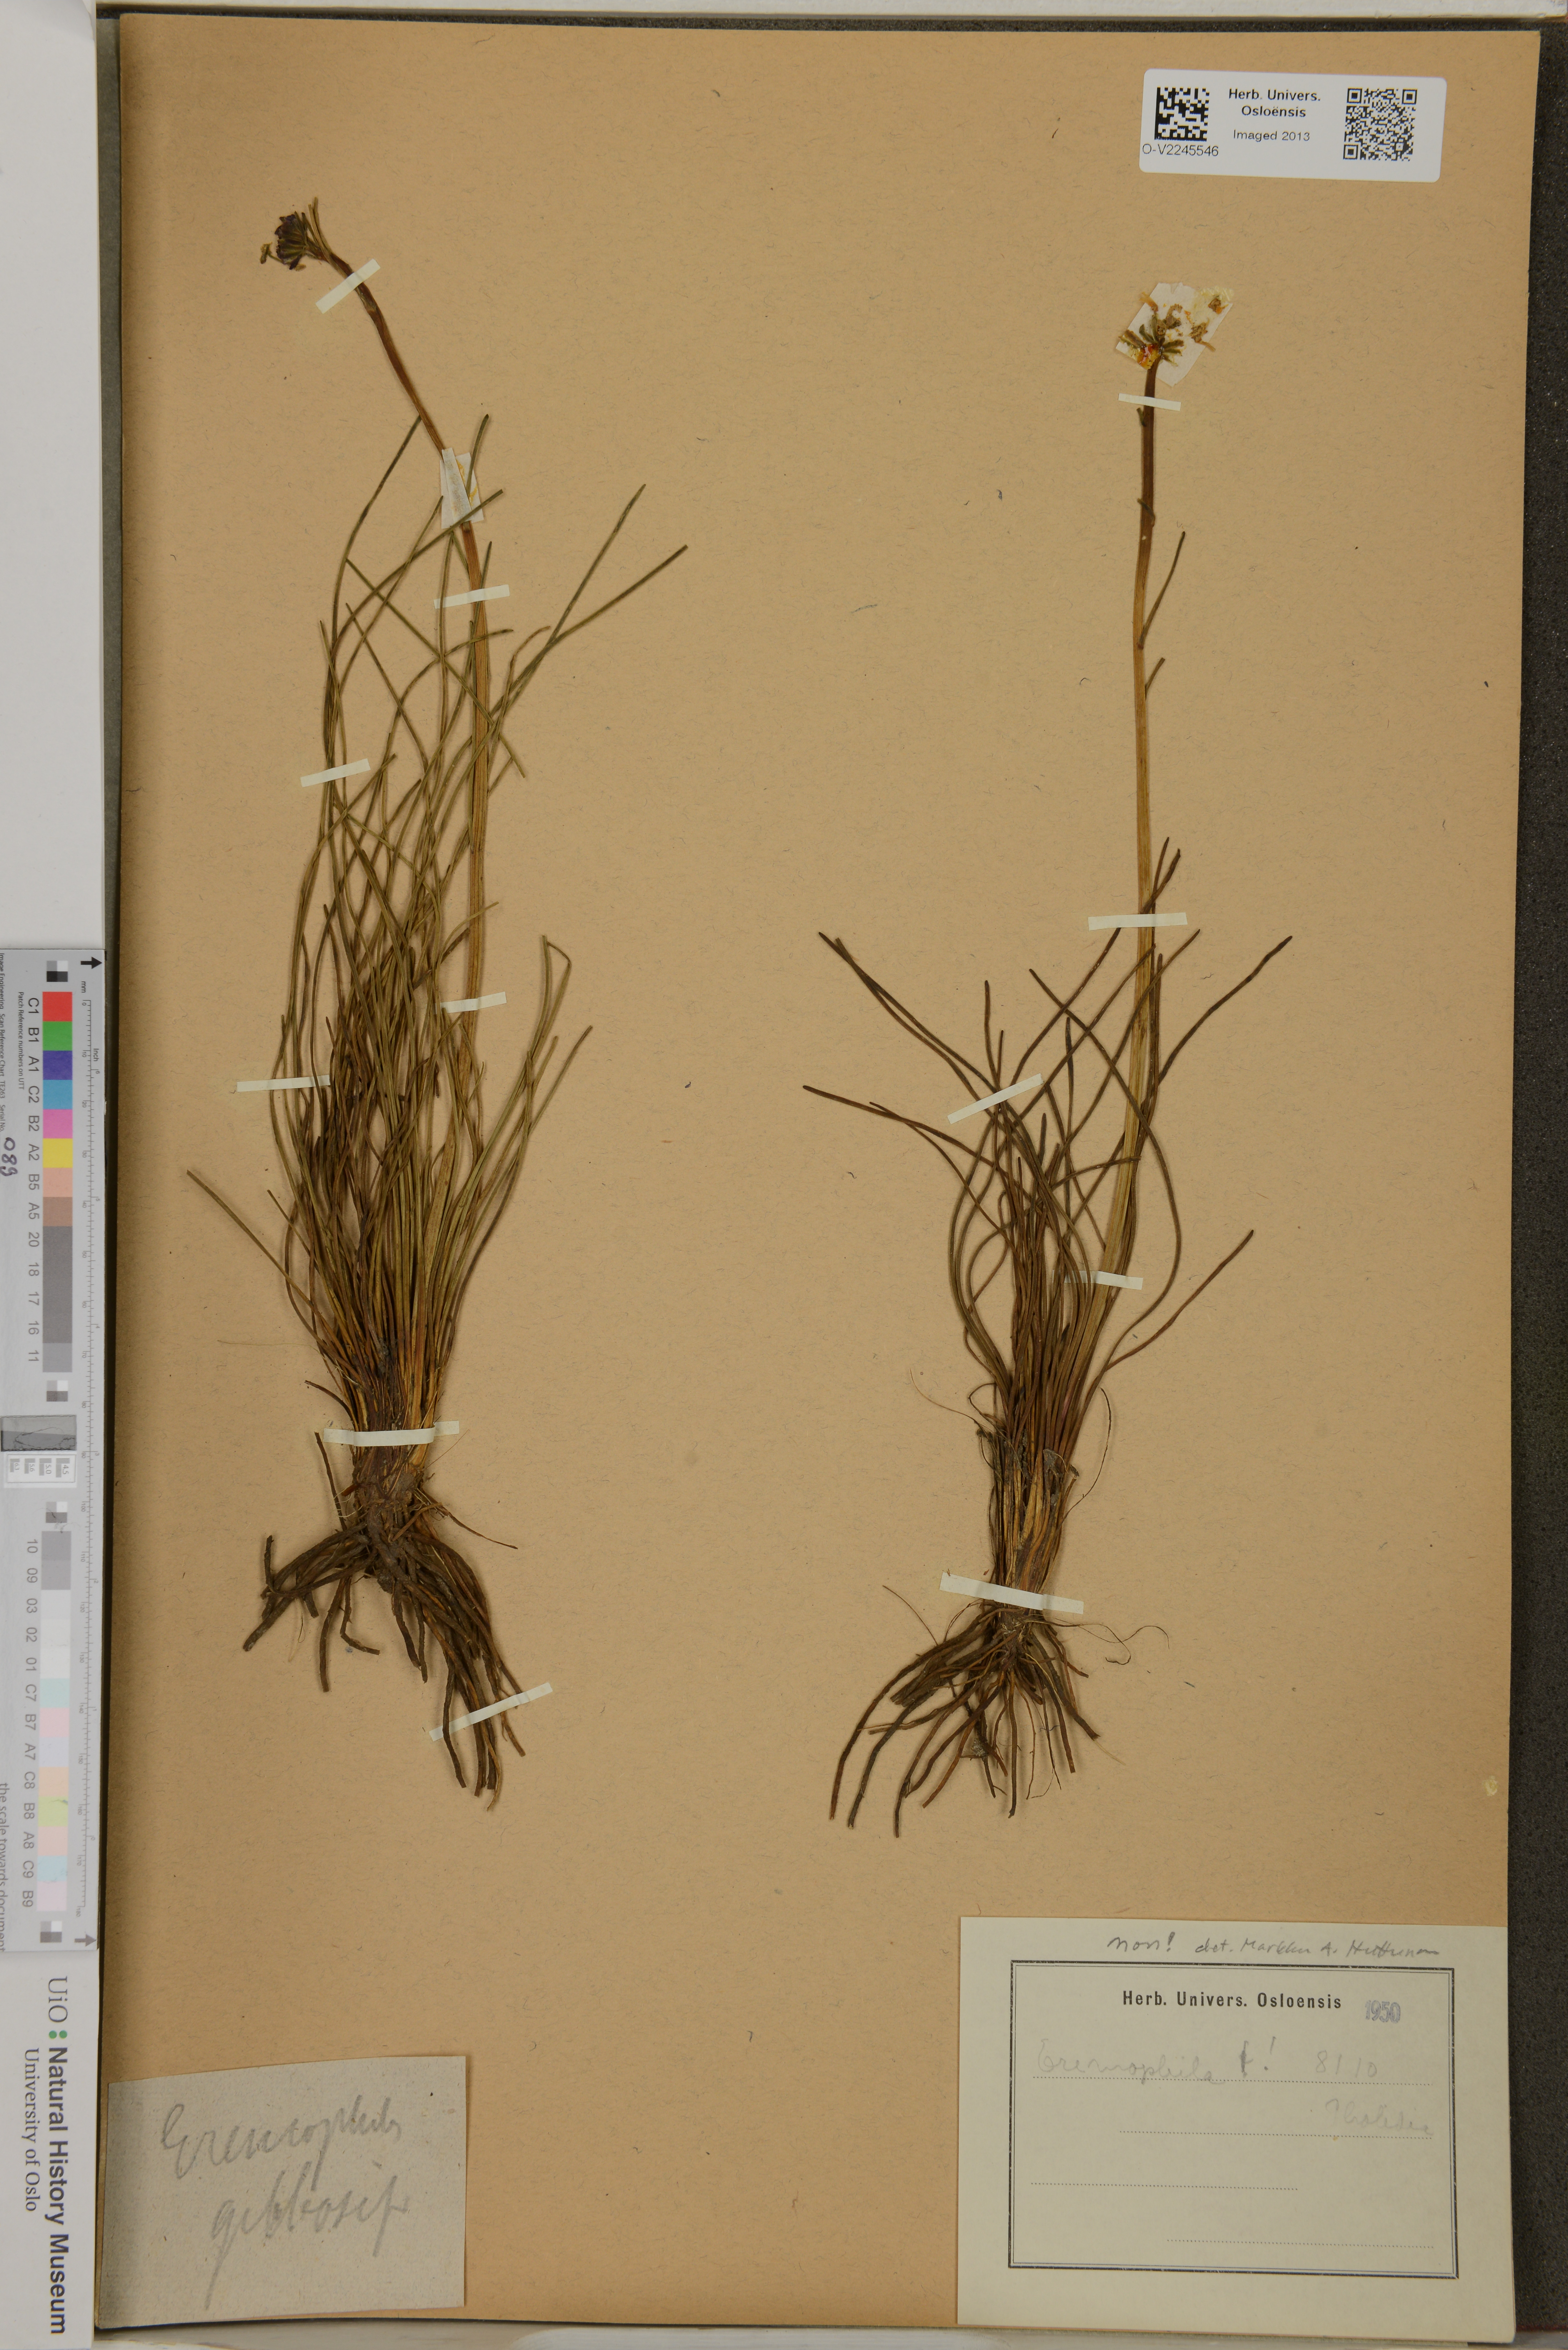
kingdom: Plantae
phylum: Tracheophyta
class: Magnoliopsida
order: Lamiales
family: Scrophulariaceae
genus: Eremophila
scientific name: Eremophila
